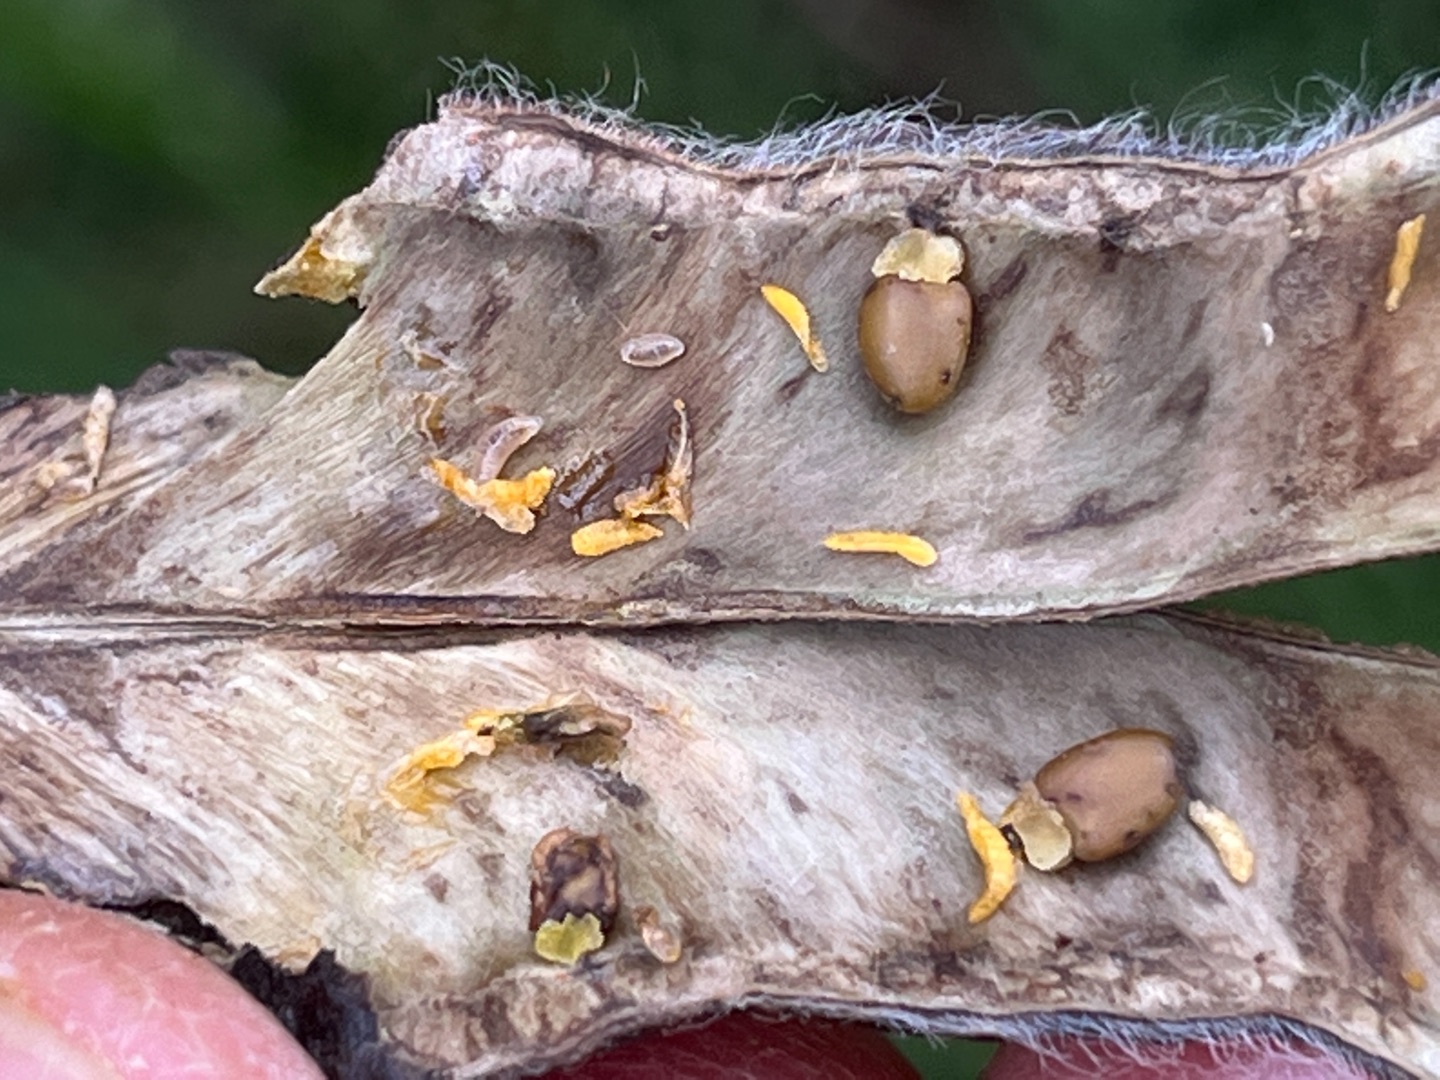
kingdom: Animalia
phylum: Arthropoda
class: Insecta
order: Diptera
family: Cecidomyiidae
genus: Contarinia
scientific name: Contarinia pulchripes
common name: Gyvelbælggalmyg
